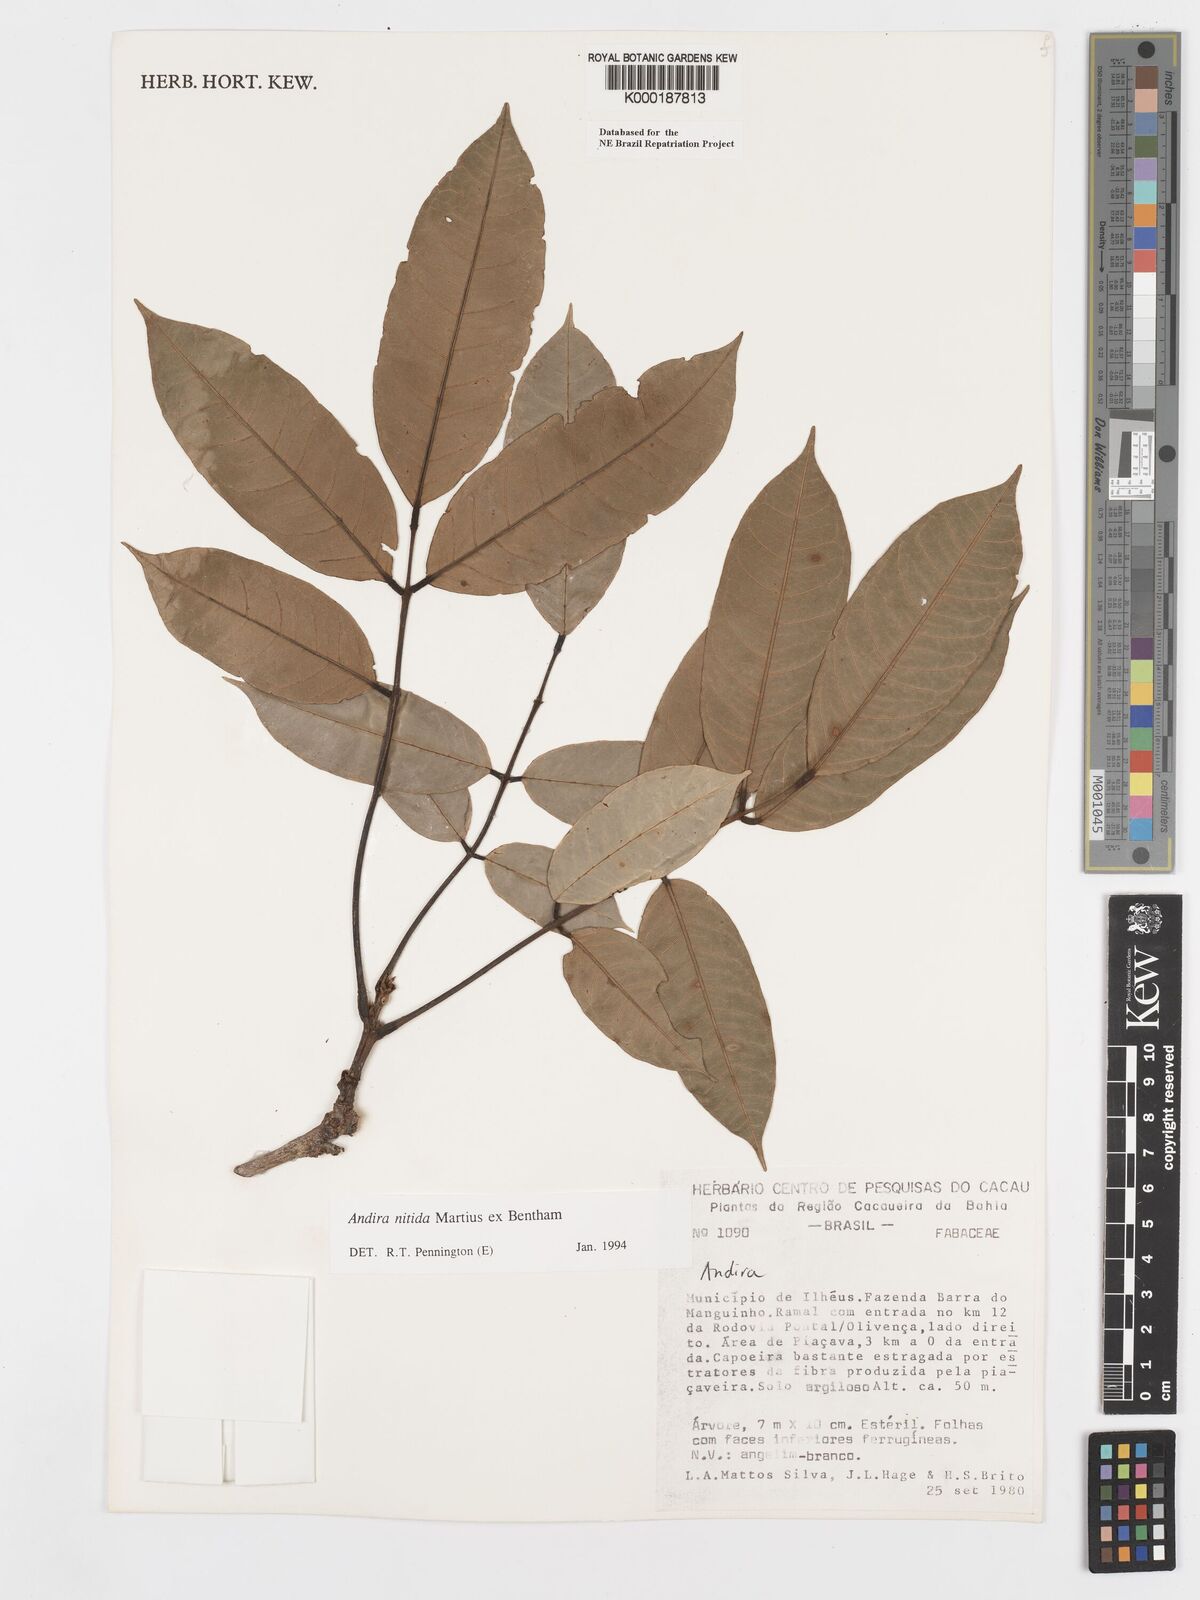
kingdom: Plantae
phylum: Tracheophyta
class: Magnoliopsida
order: Fabales
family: Fabaceae
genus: Andira
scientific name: Andira nitida
